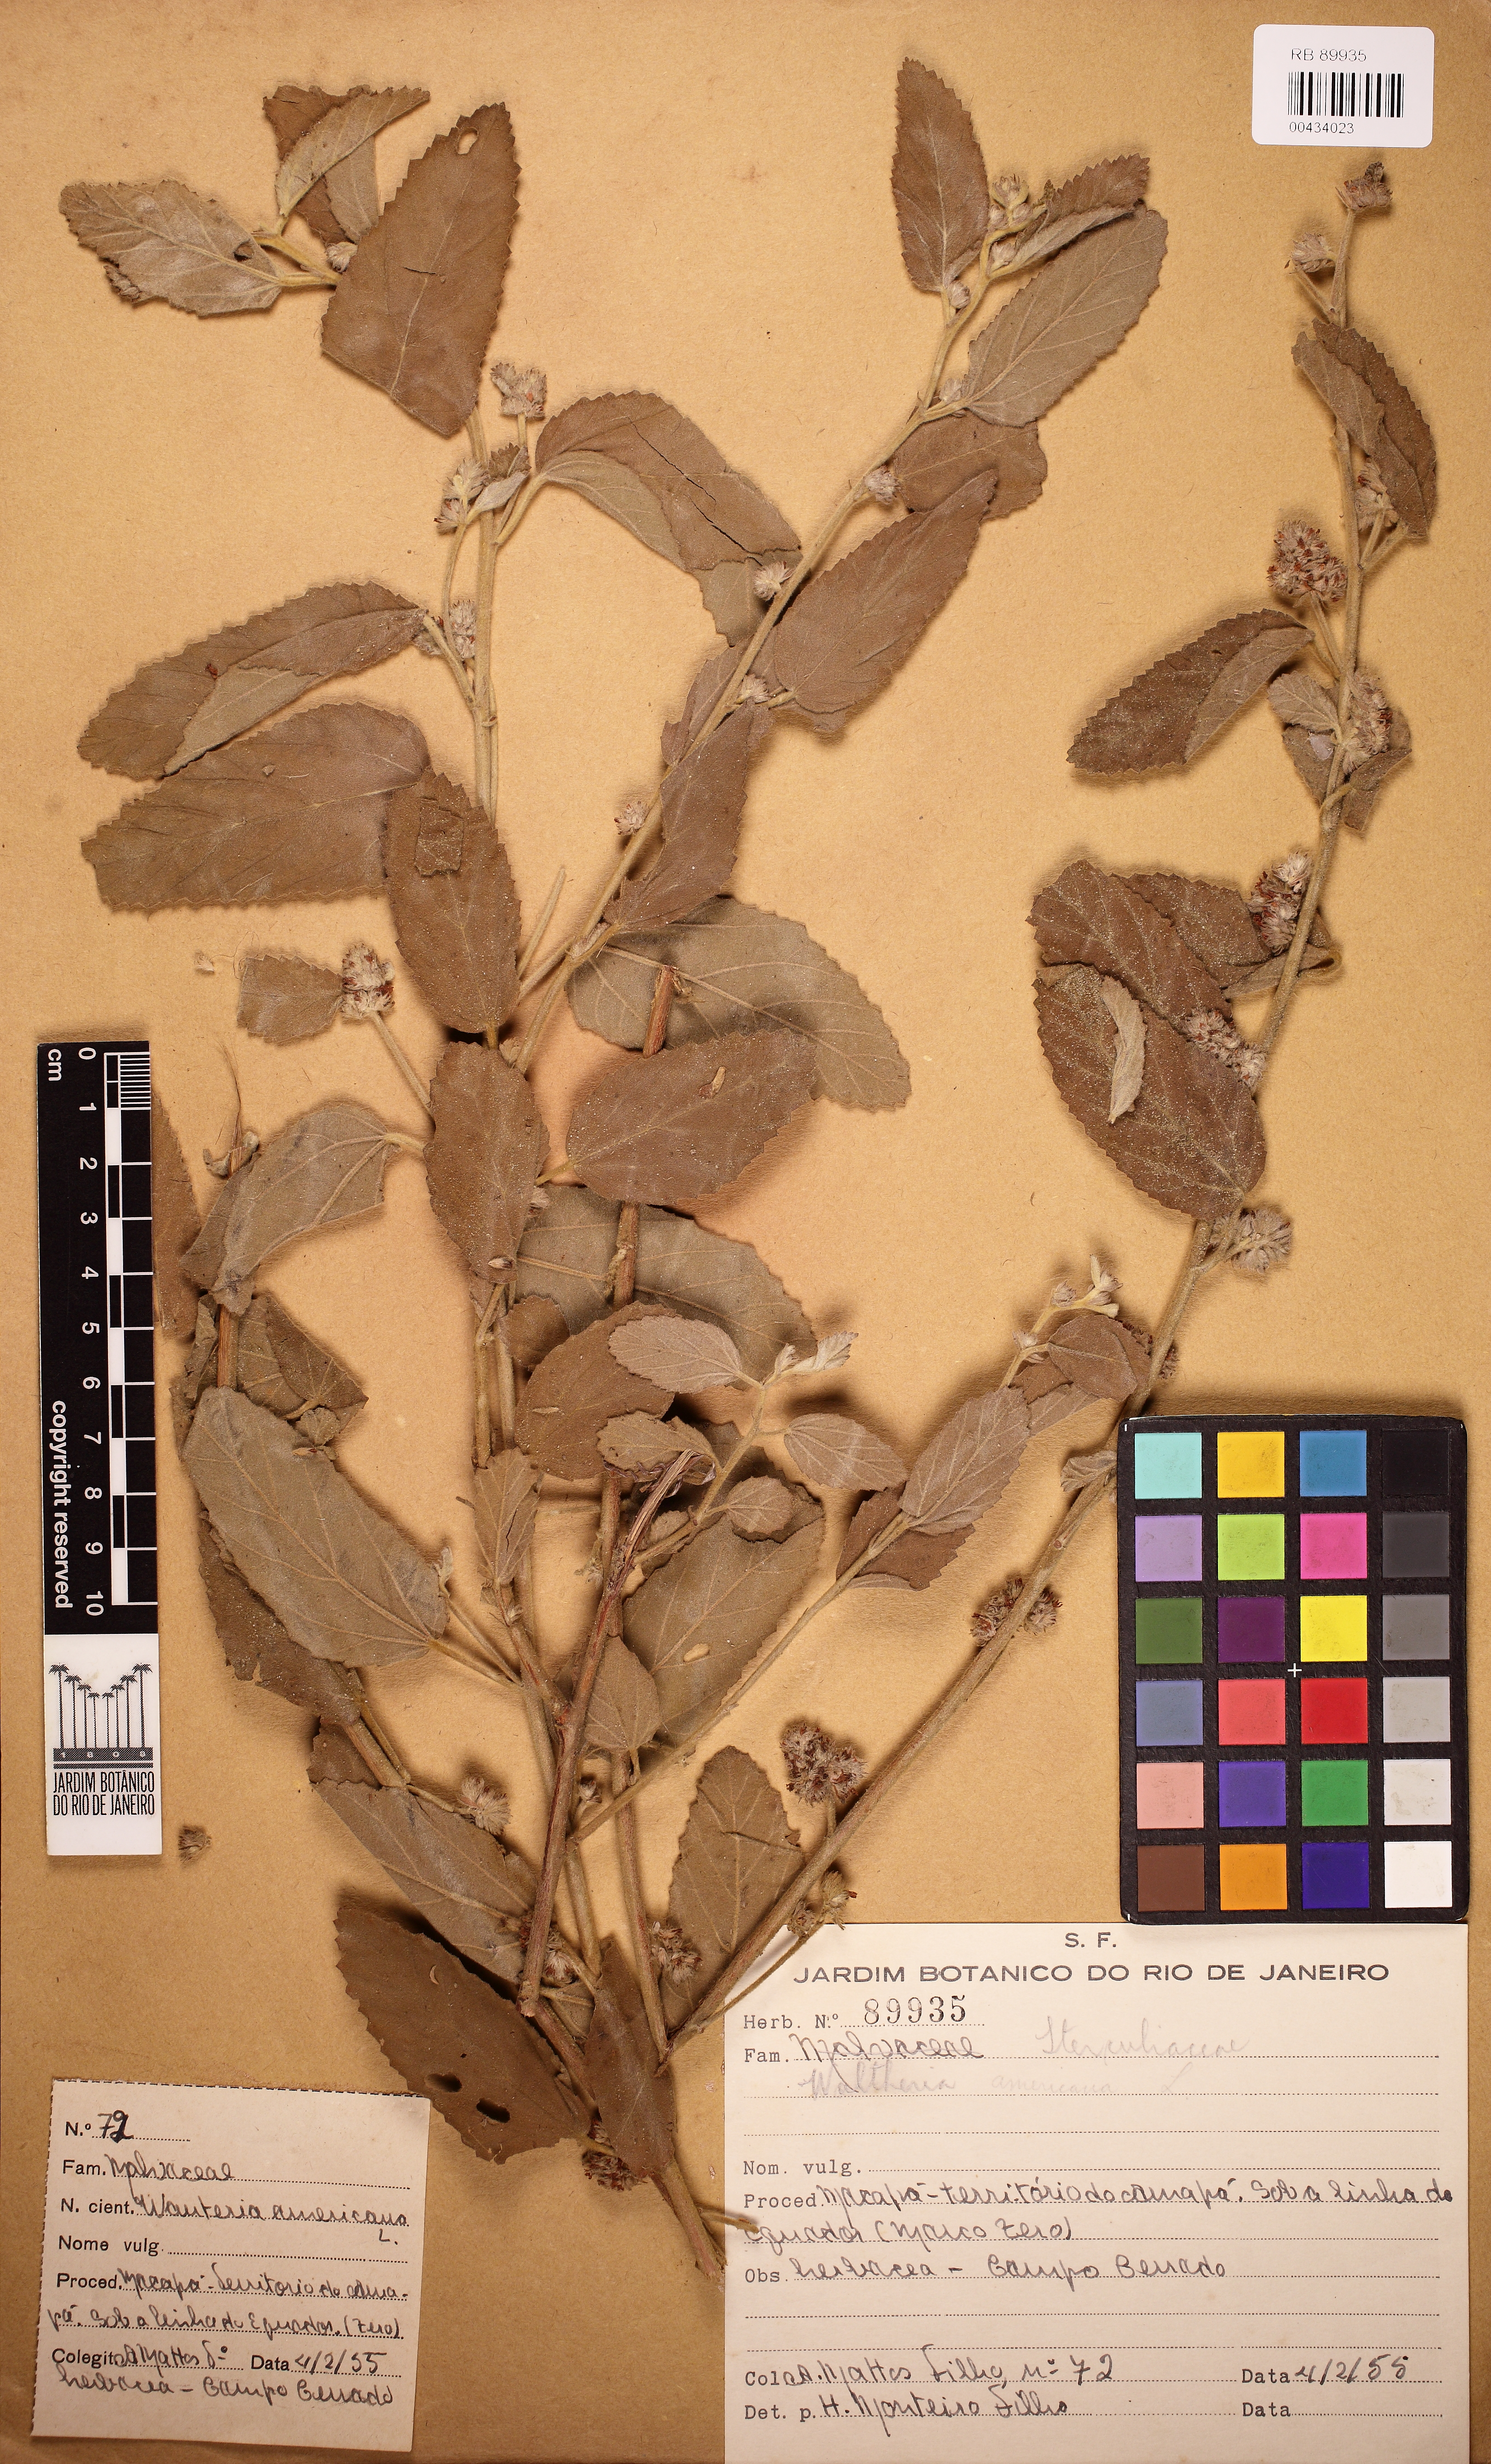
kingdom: Plantae
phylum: Tracheophyta
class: Magnoliopsida
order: Malvales
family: Malvaceae
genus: Waltheria
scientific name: Waltheria indica
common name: Leather-coat
